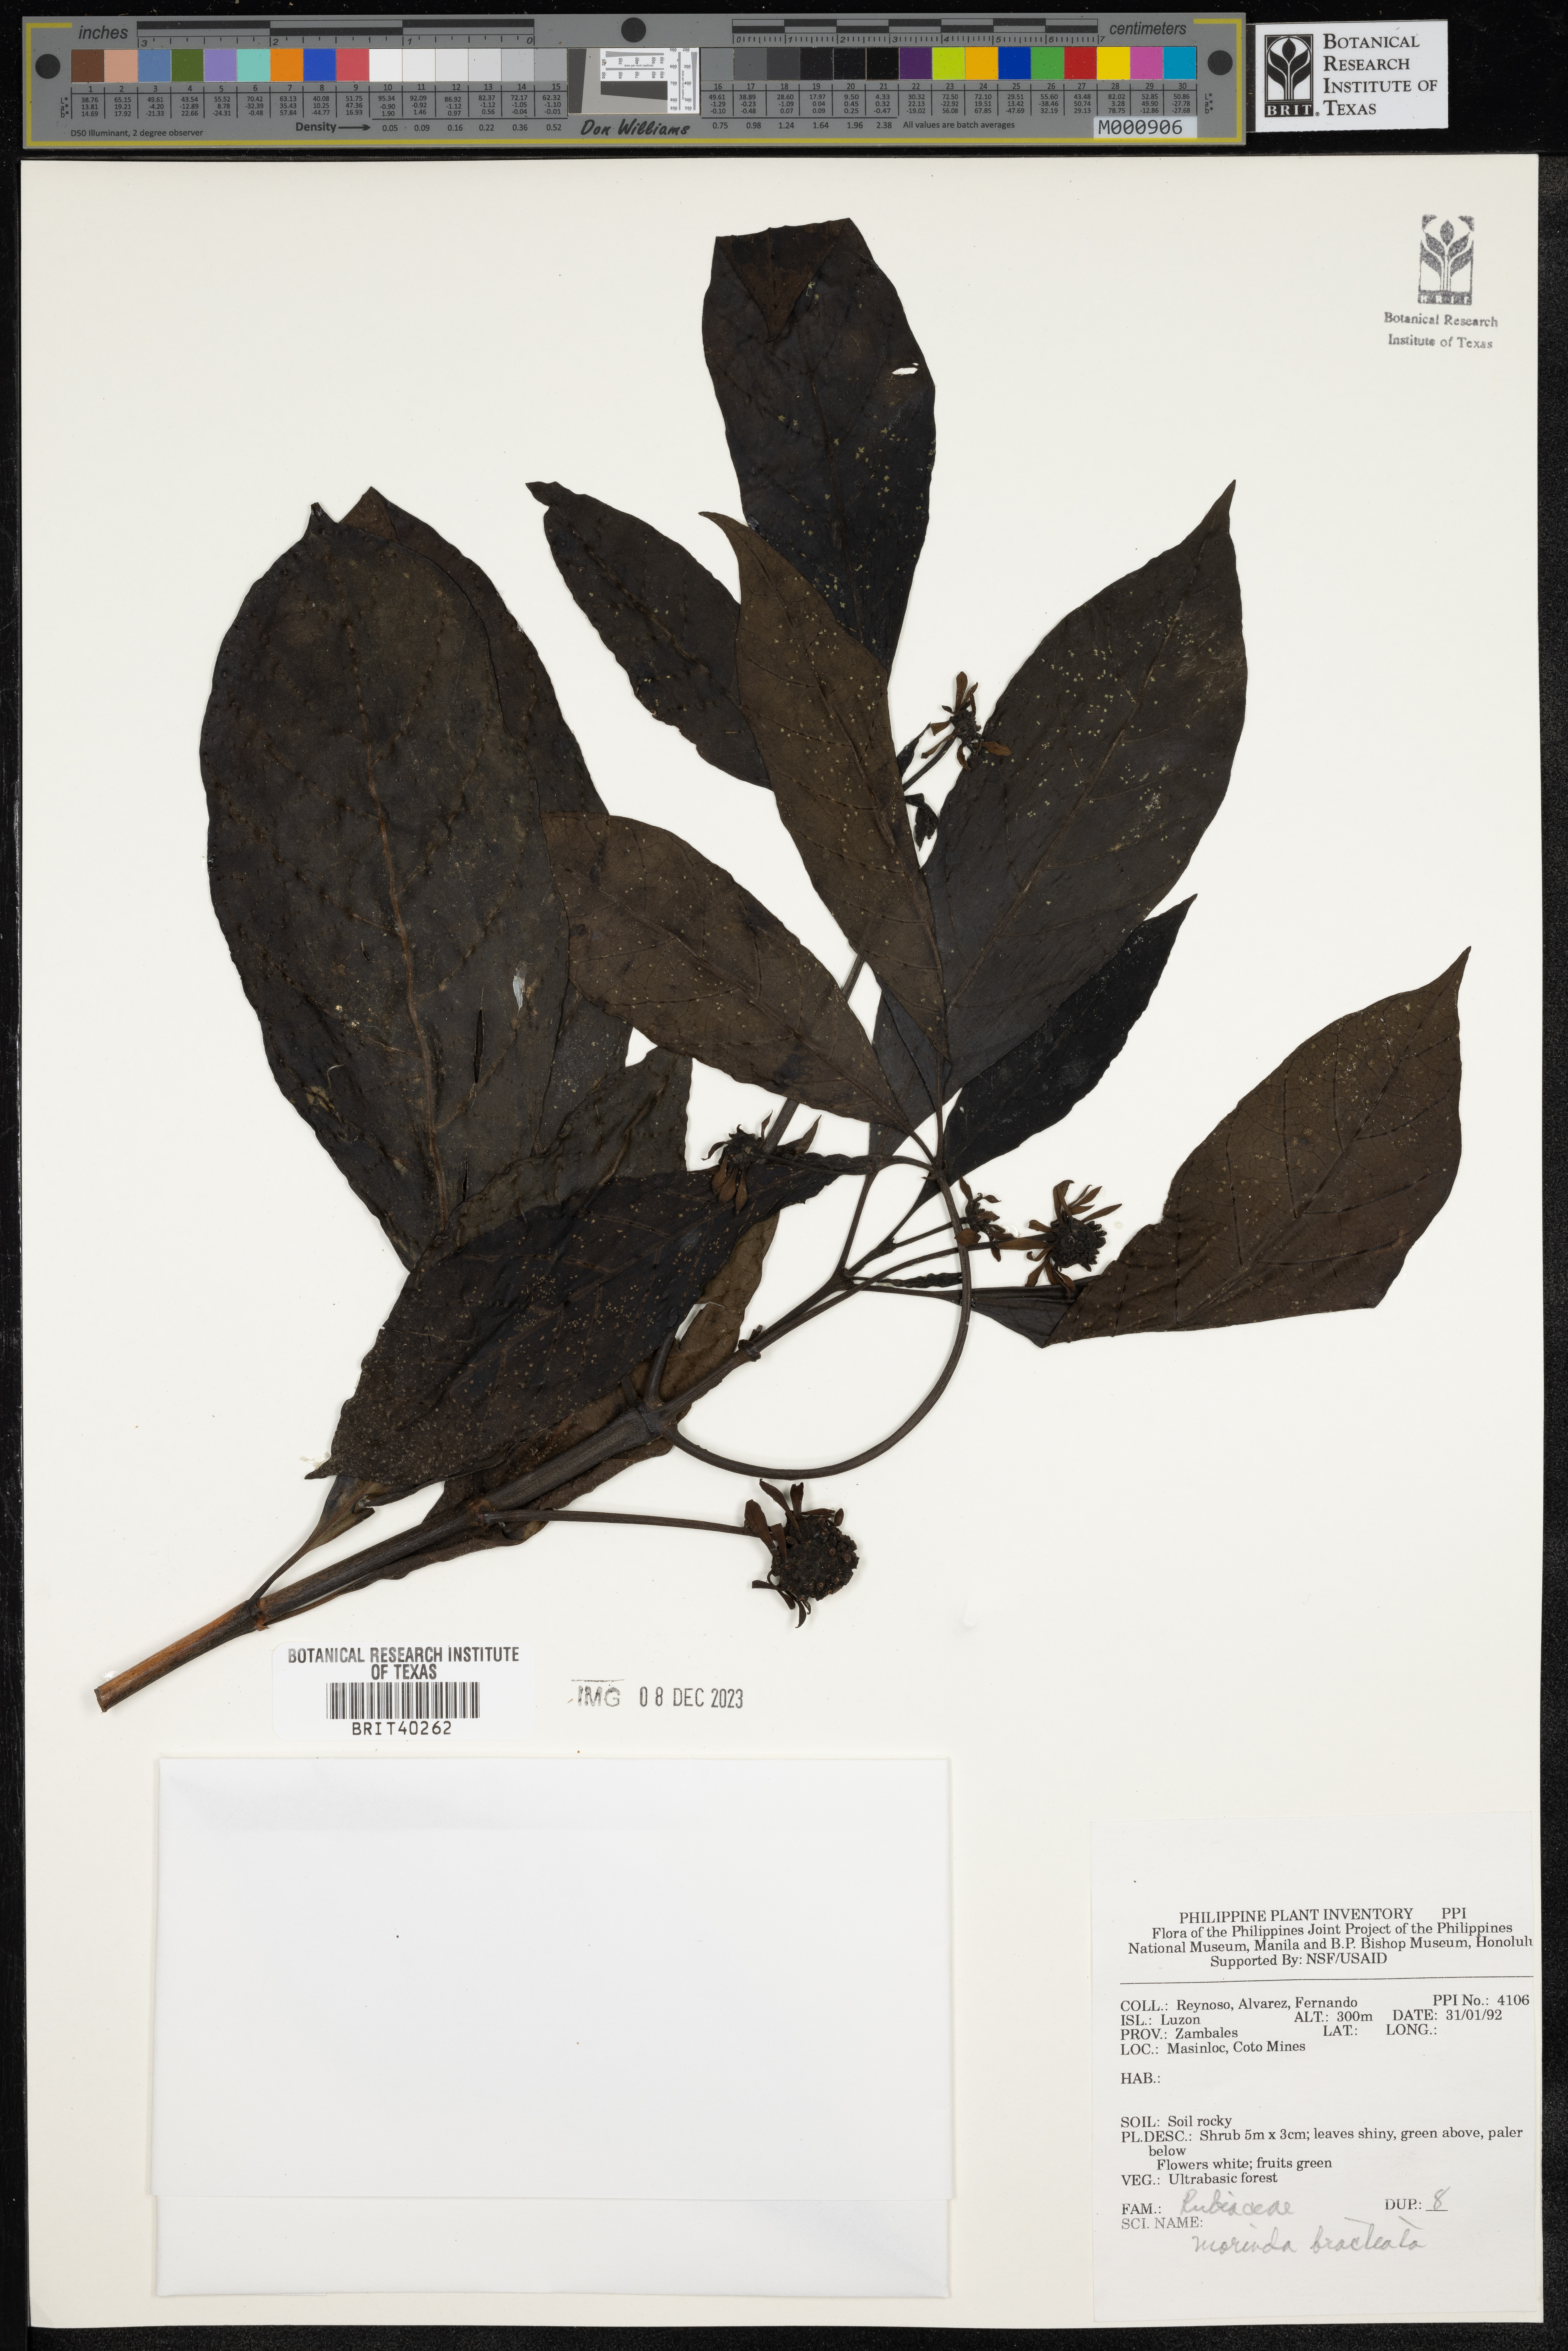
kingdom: Plantae
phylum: Tracheophyta
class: Magnoliopsida
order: Gentianales
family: Rubiaceae
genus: Morinda
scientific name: Morinda bracteata
